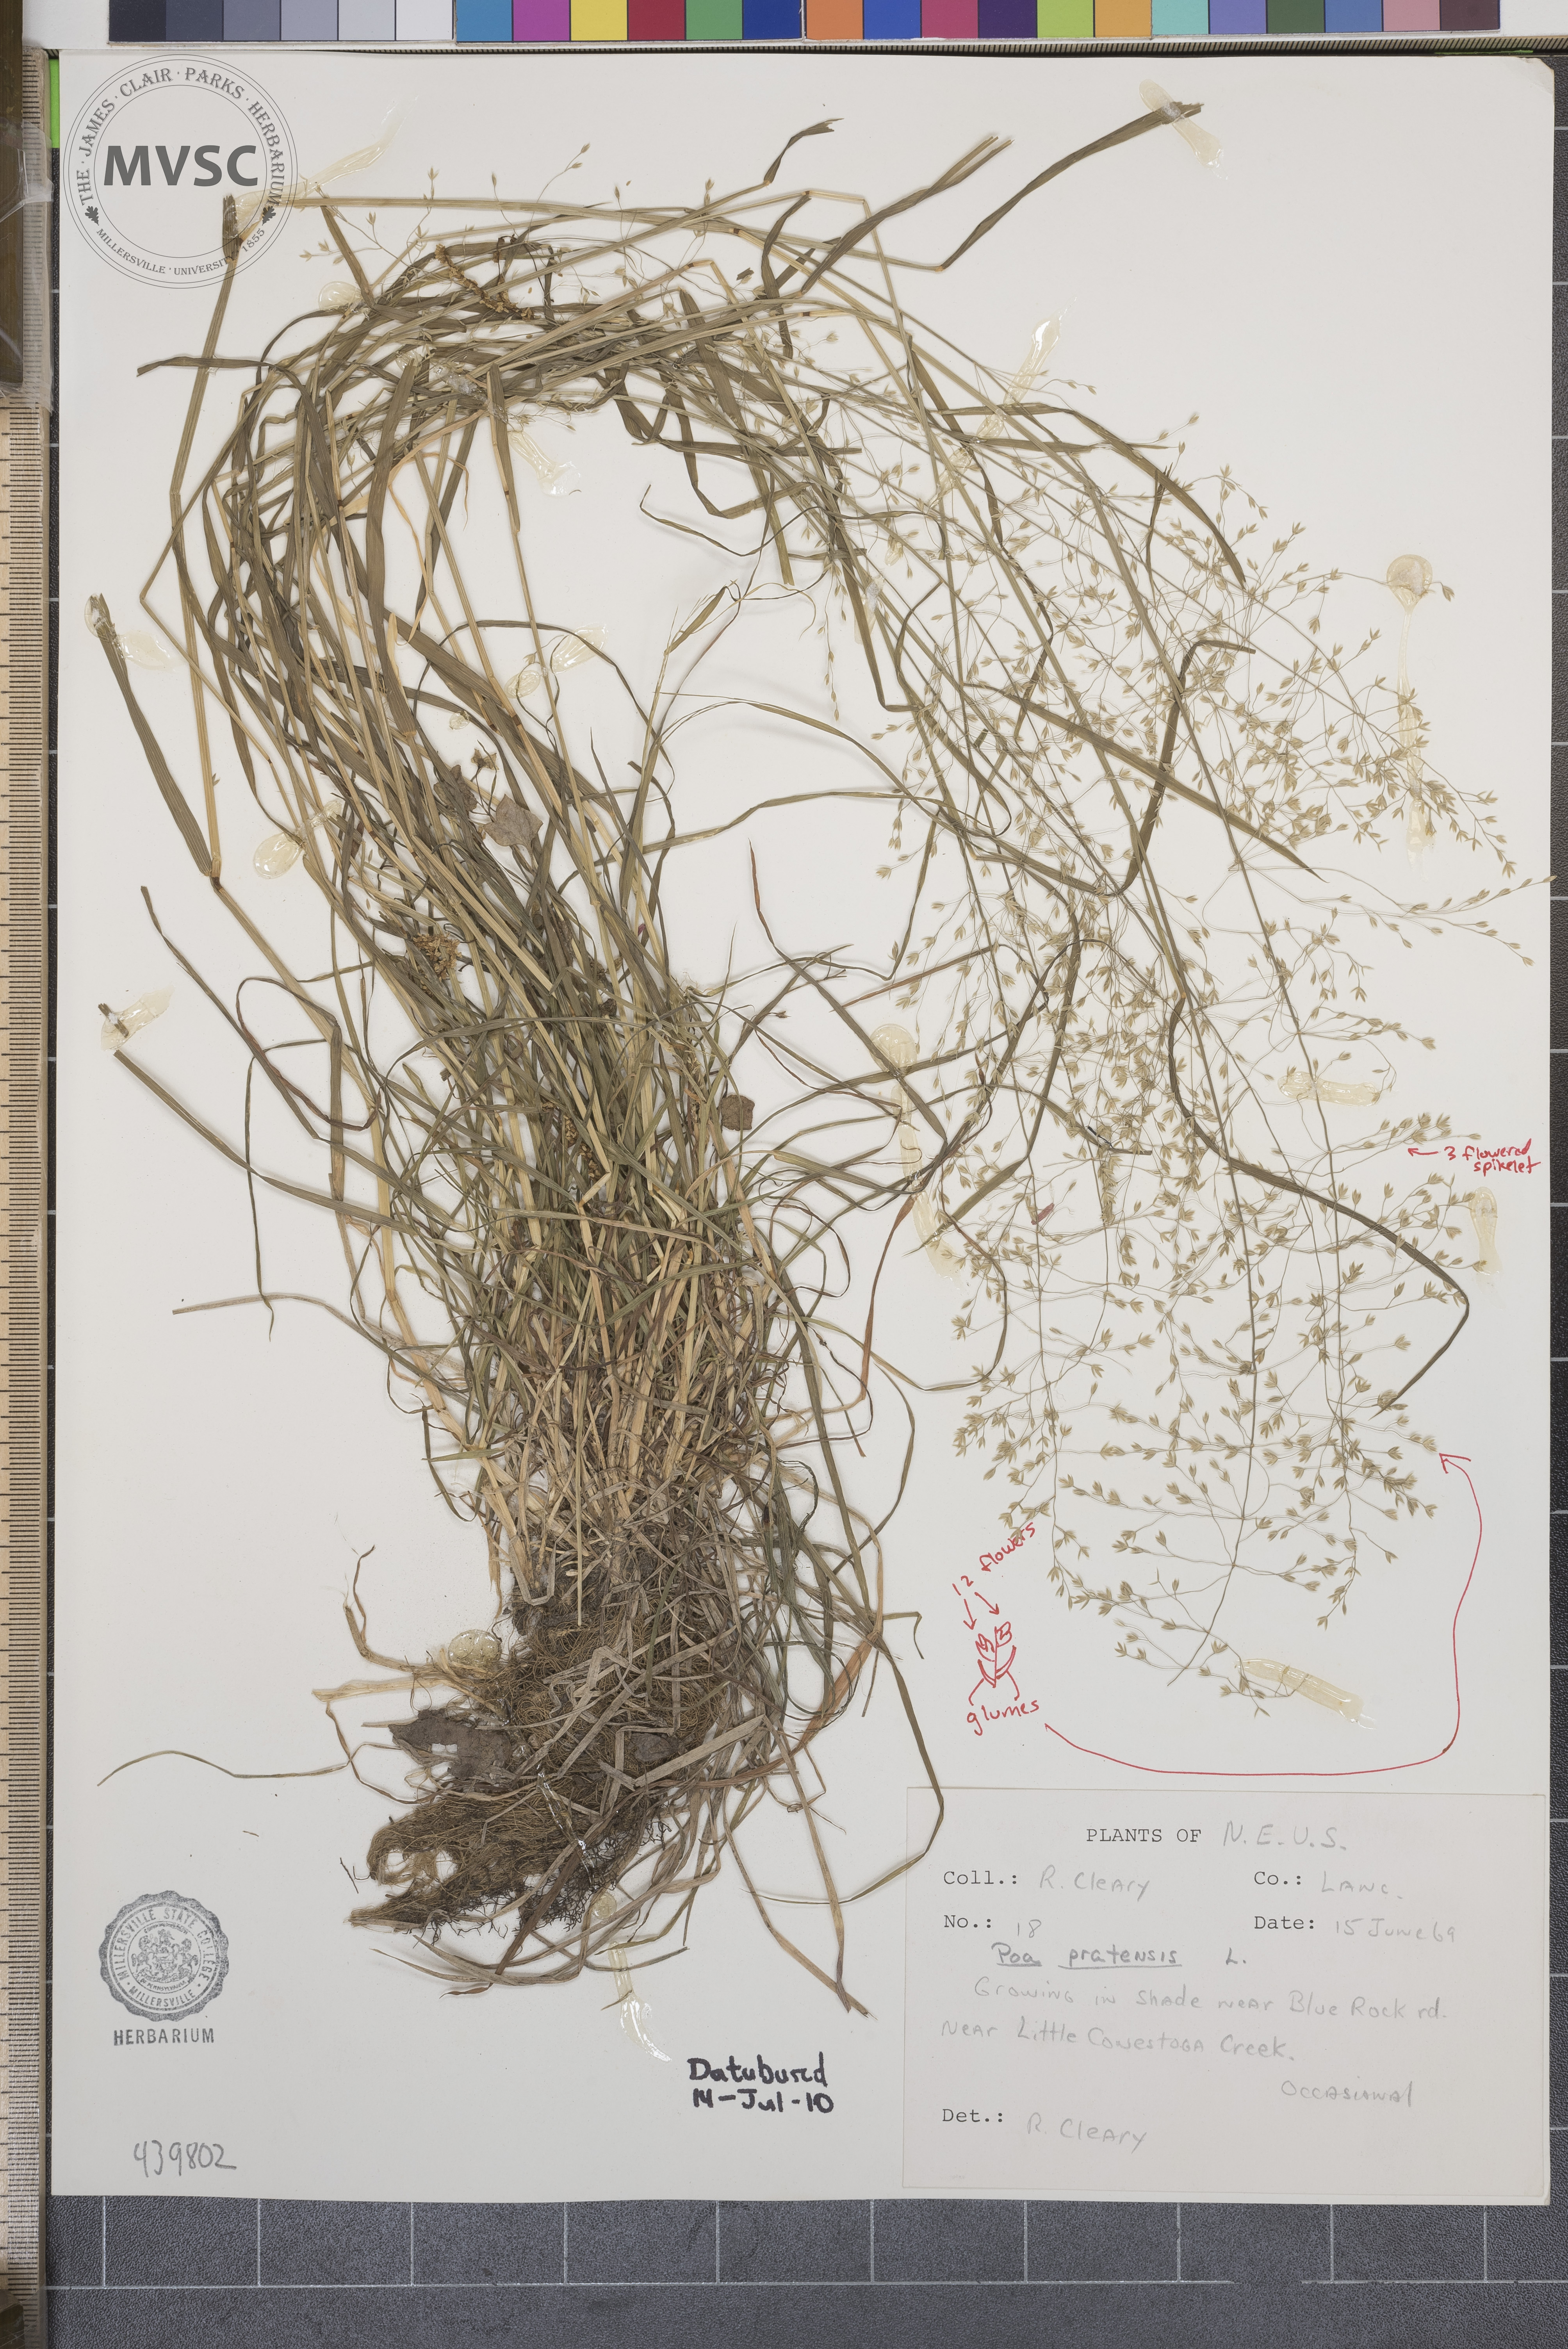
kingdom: Plantae
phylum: Tracheophyta
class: Liliopsida
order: Poales
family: Poaceae
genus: Poa
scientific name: Poa pratensis
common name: Kentucky bluegrass
